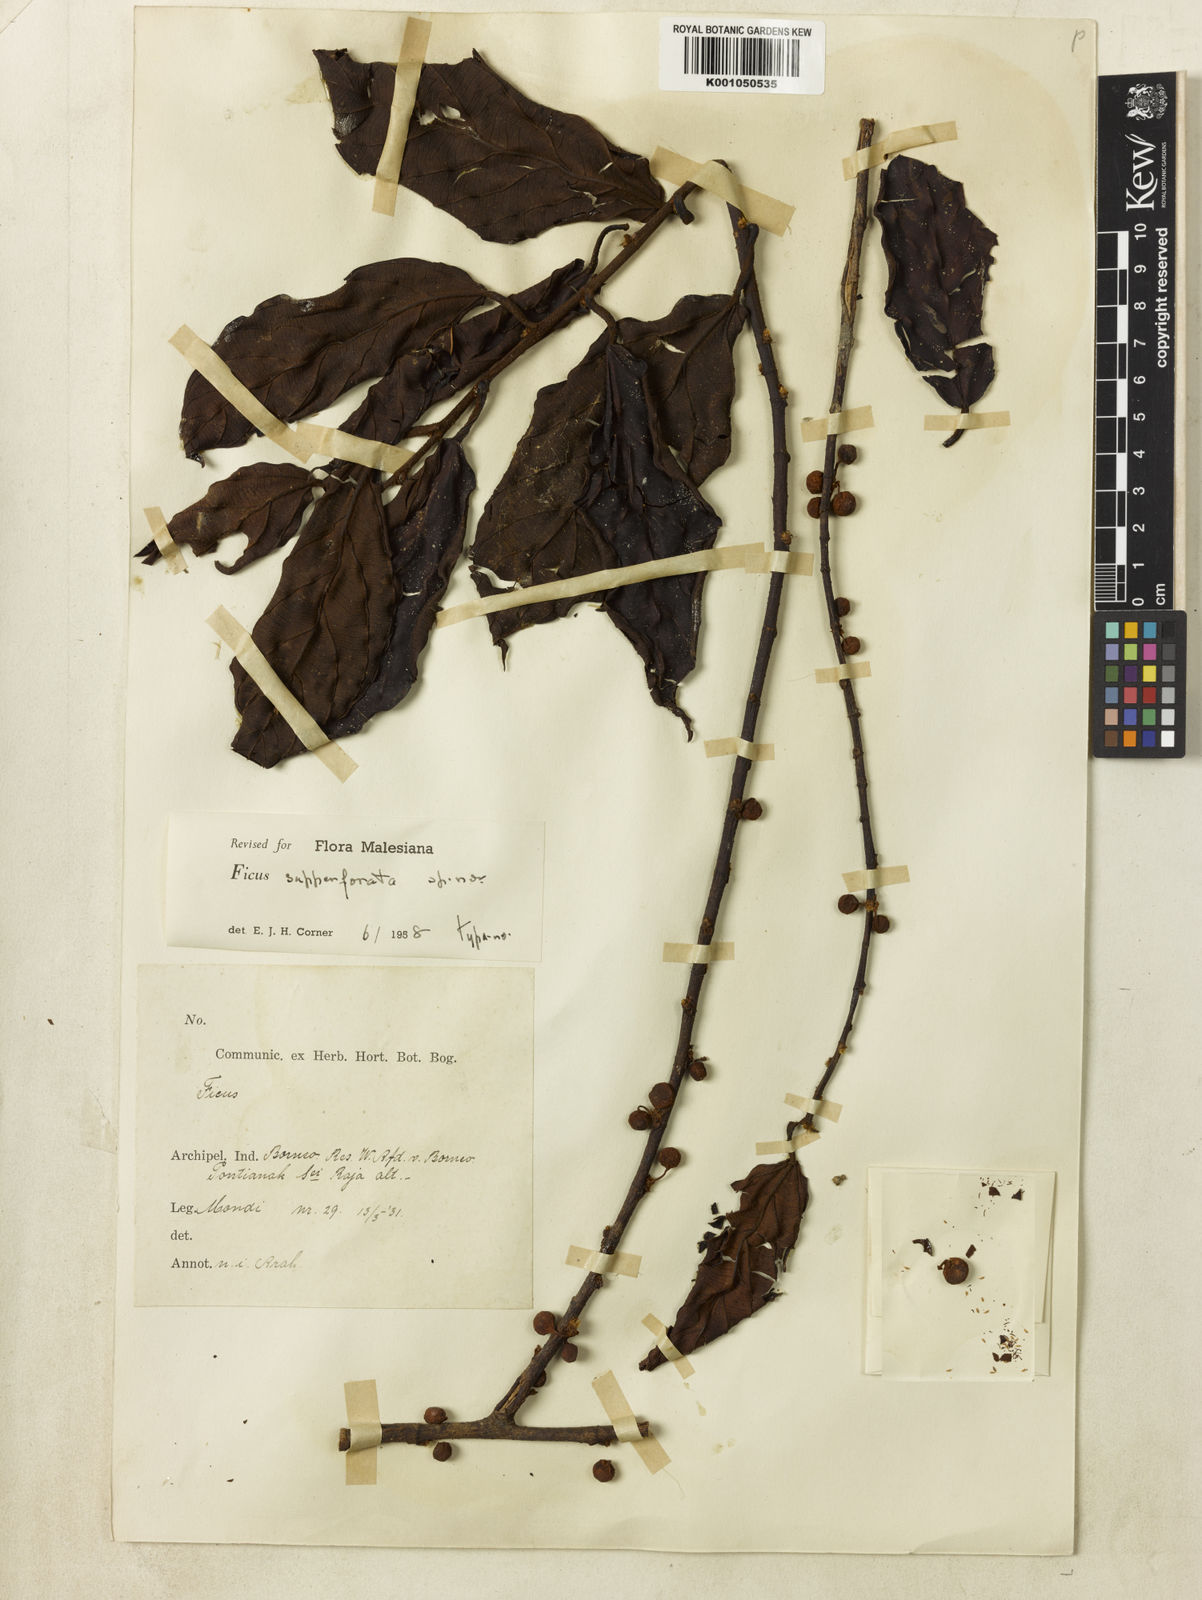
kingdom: Plantae
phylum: Tracheophyta
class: Magnoliopsida
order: Rosales
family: Moraceae
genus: Ficus
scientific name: Ficus supperforata
